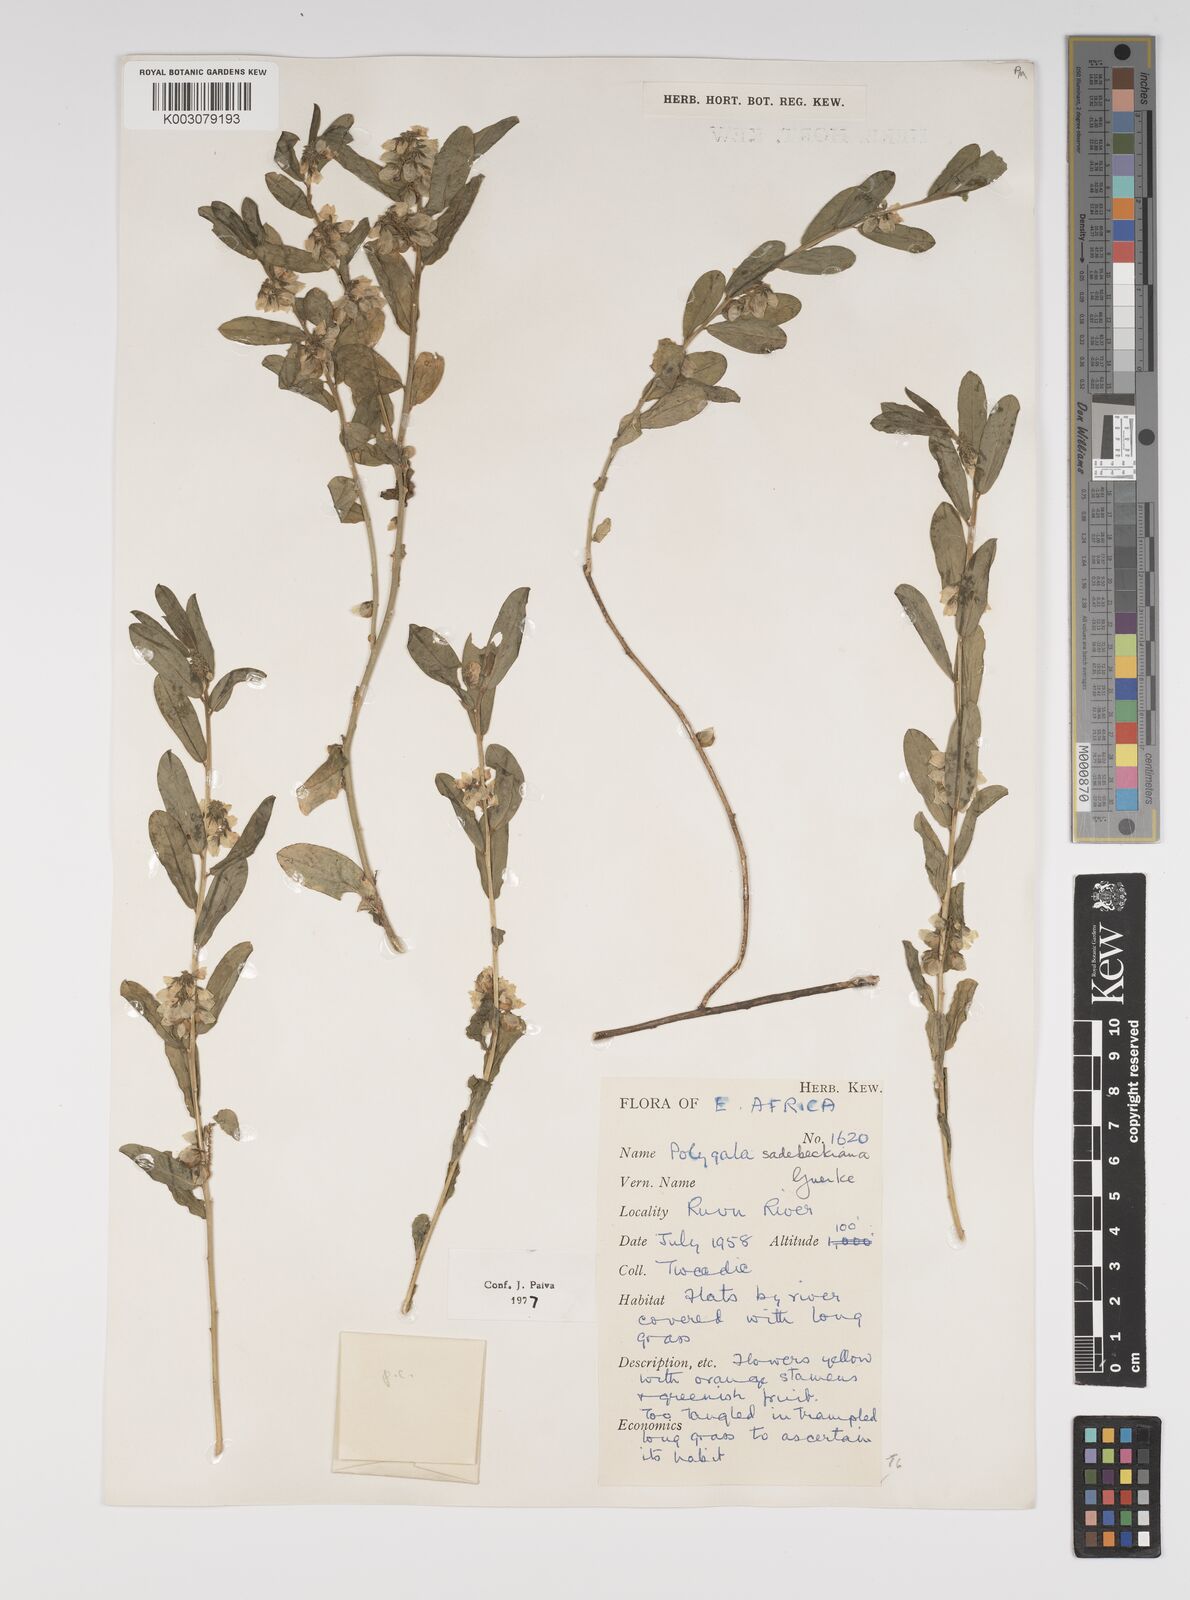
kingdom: Plantae
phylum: Tracheophyta
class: Magnoliopsida
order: Fabales
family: Polygalaceae
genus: Polygala
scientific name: Polygala sadebeckiana
